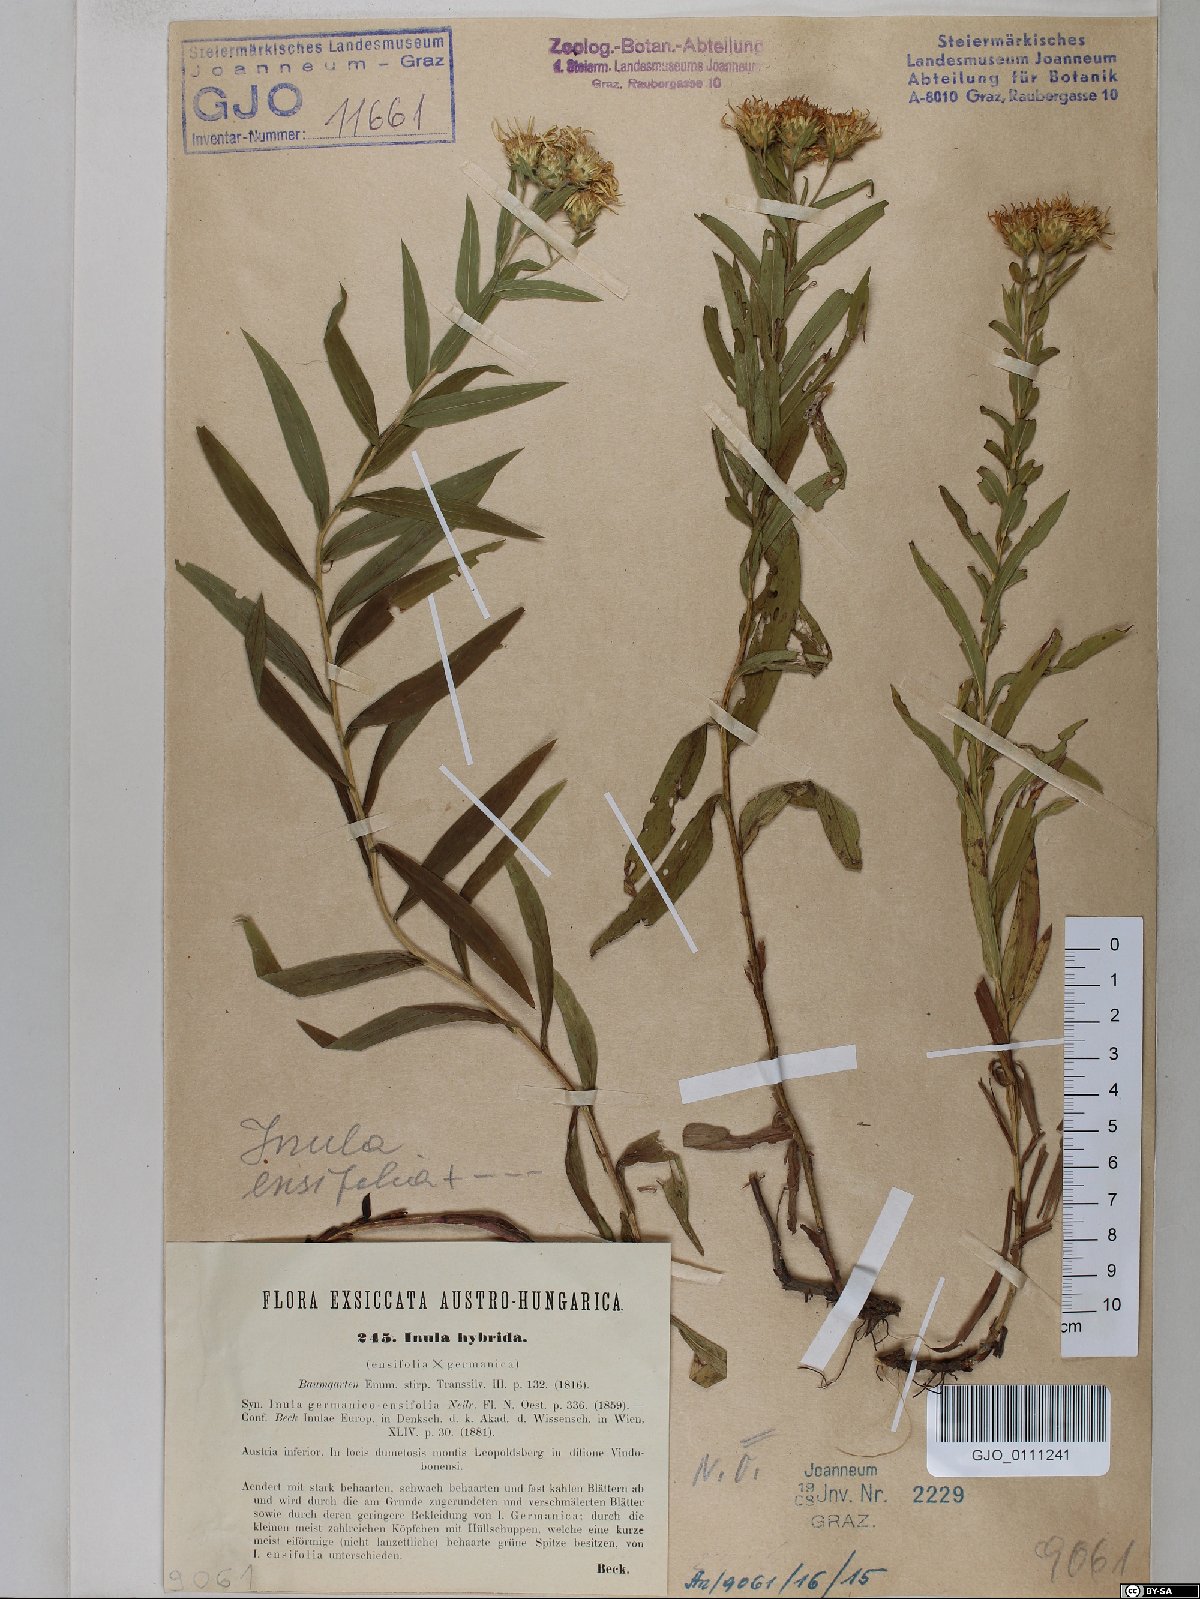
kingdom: Plantae
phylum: Tracheophyta
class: Magnoliopsida
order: Asterales
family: Asteraceae
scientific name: Asteraceae
